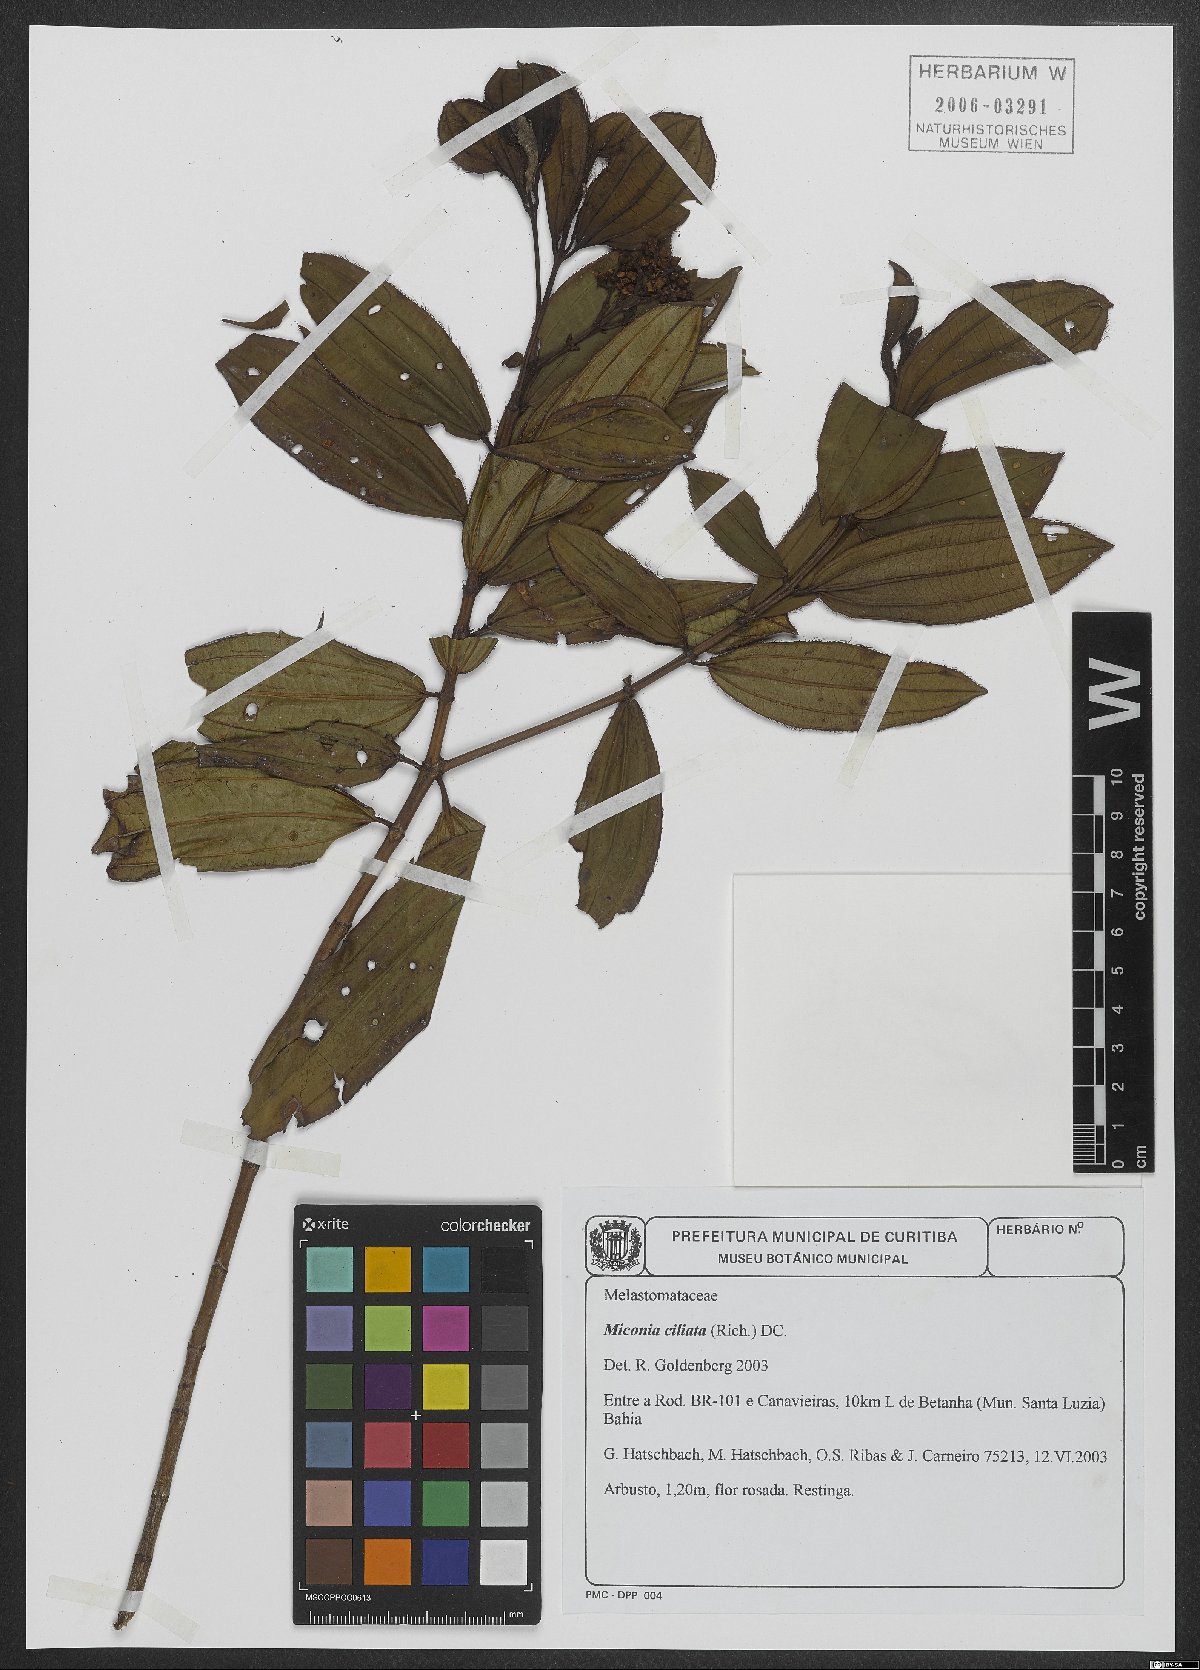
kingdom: Plantae
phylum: Tracheophyta
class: Magnoliopsida
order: Myrtales
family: Melastomataceae
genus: Miconia
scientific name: Miconia ciliata
